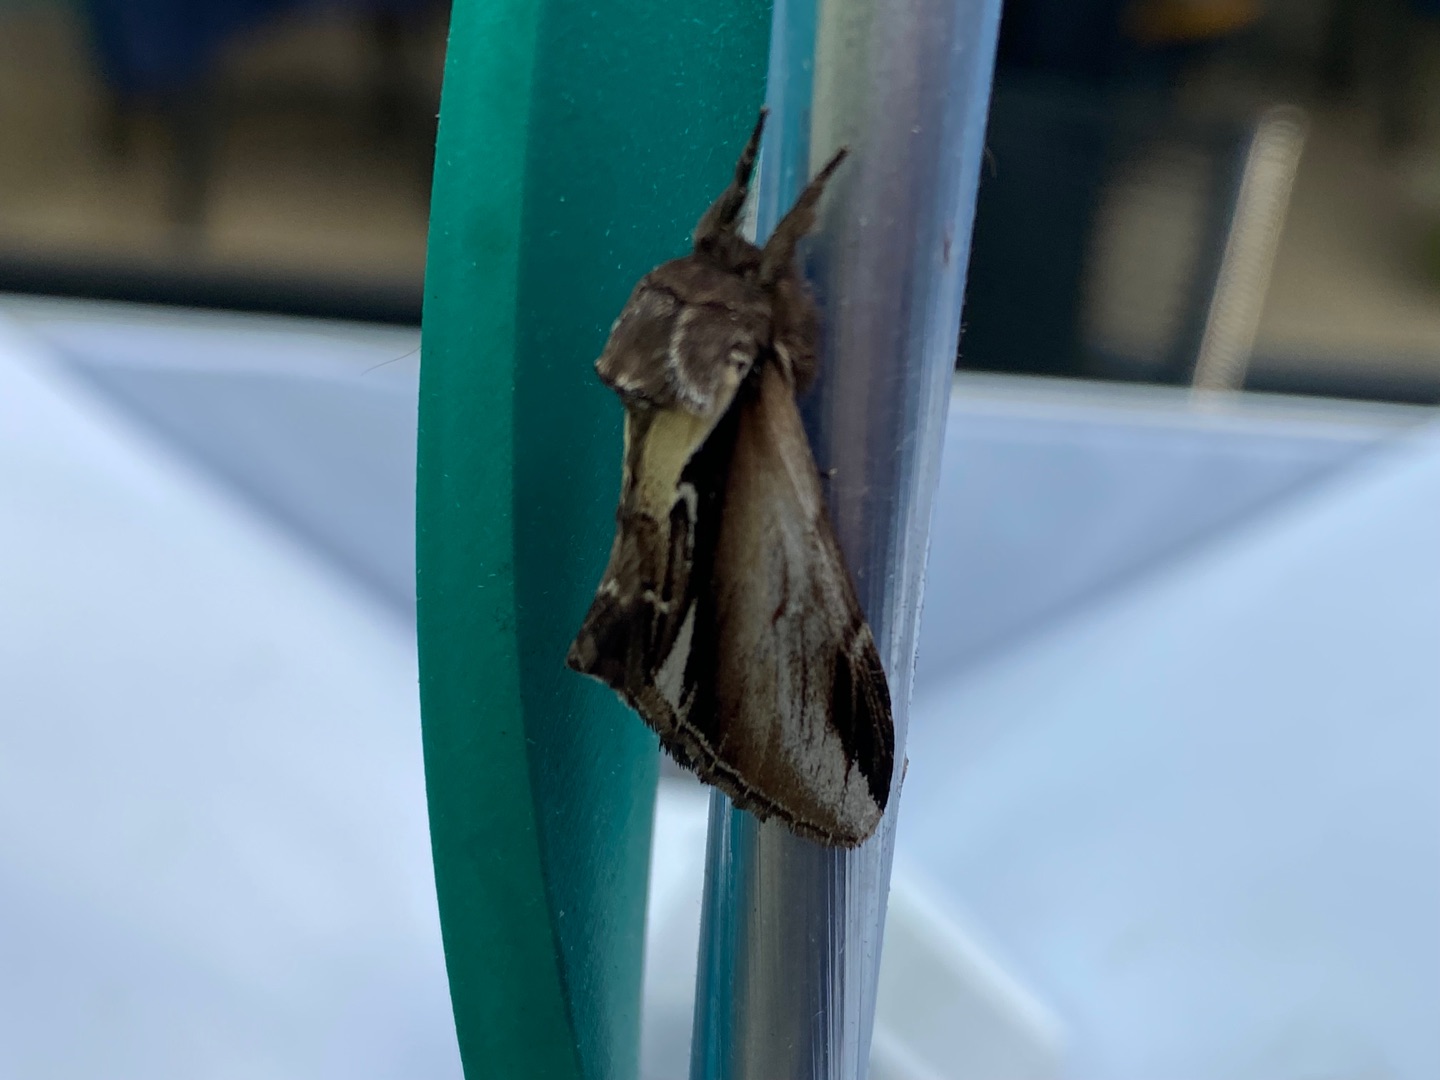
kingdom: Animalia
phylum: Arthropoda
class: Insecta
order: Lepidoptera
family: Notodontidae
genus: Pheosia
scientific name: Pheosia gnoma
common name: Birkeporcelænsspinder
